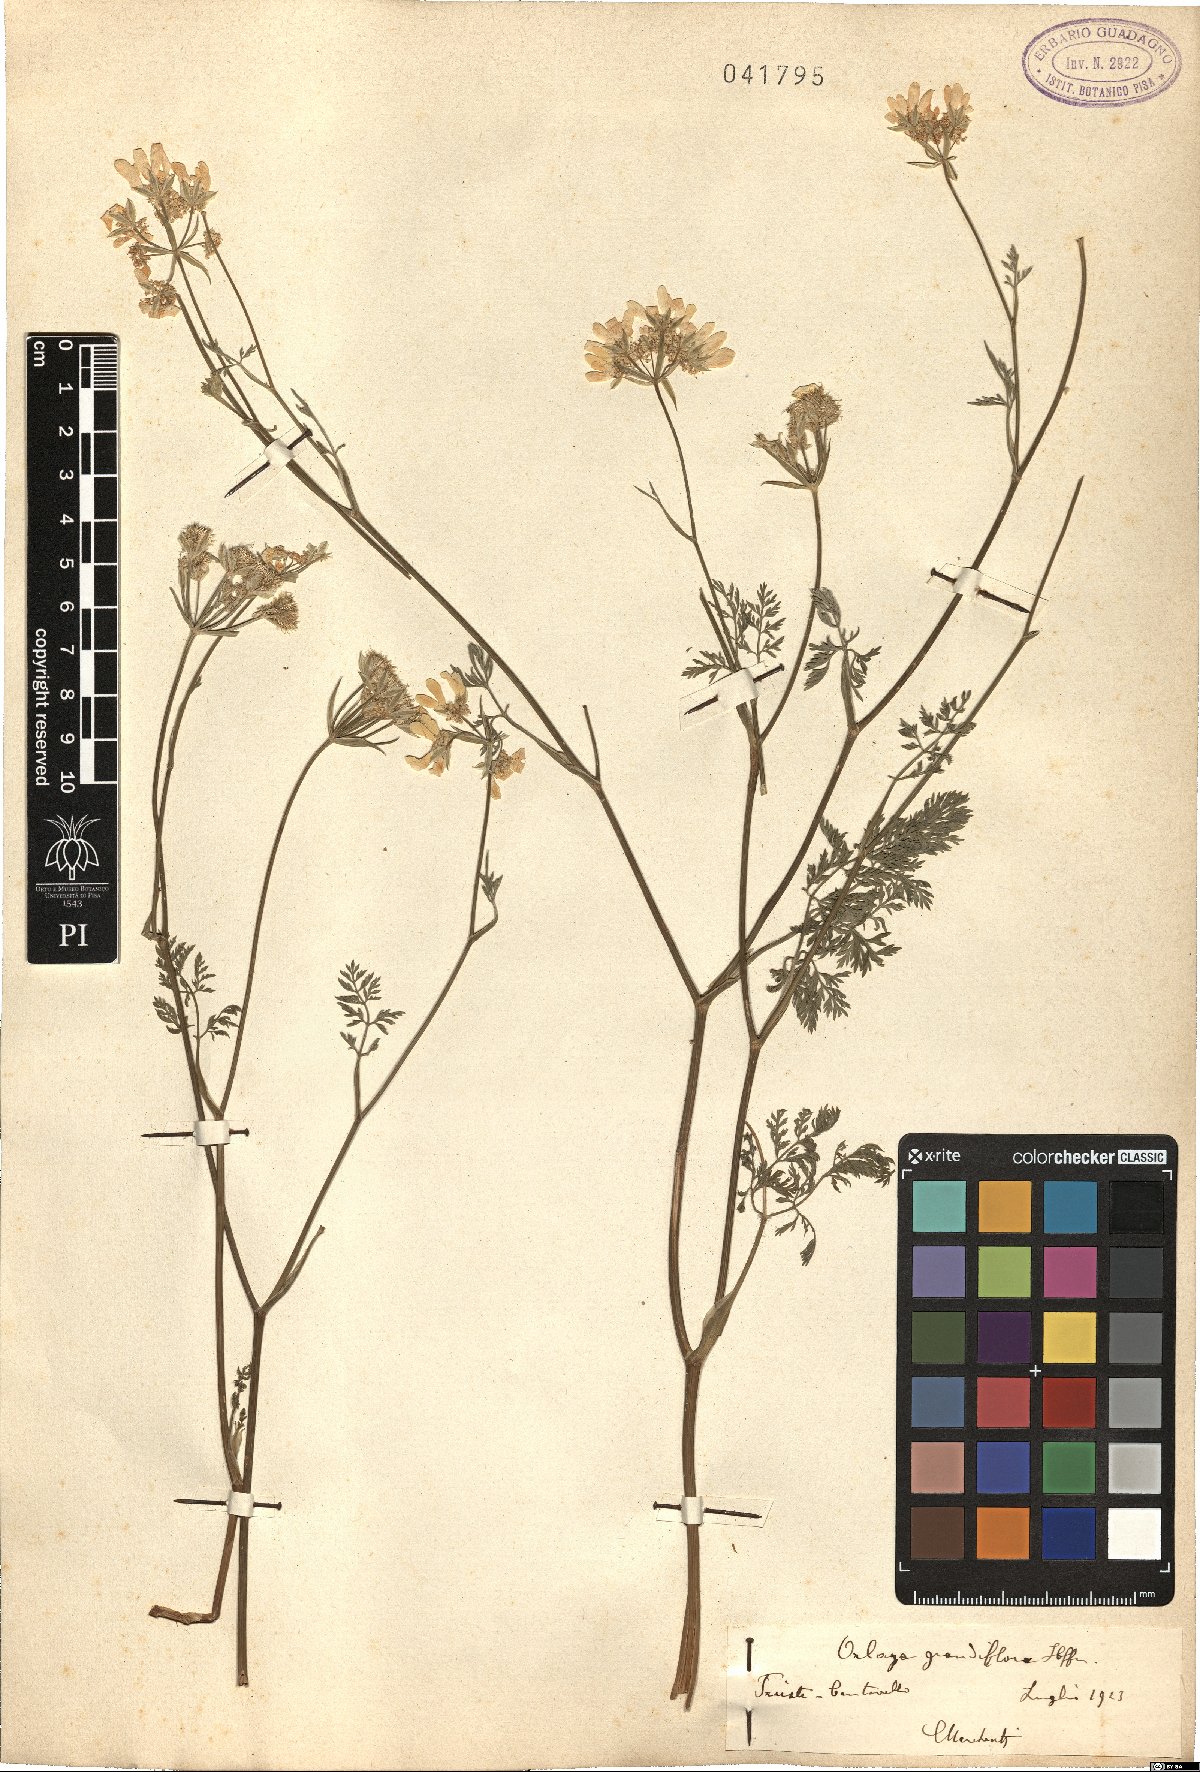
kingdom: Plantae
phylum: Tracheophyta
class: Magnoliopsida
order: Apiales
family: Apiaceae
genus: Orlaya
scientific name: Orlaya grandiflora
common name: White lace flower
